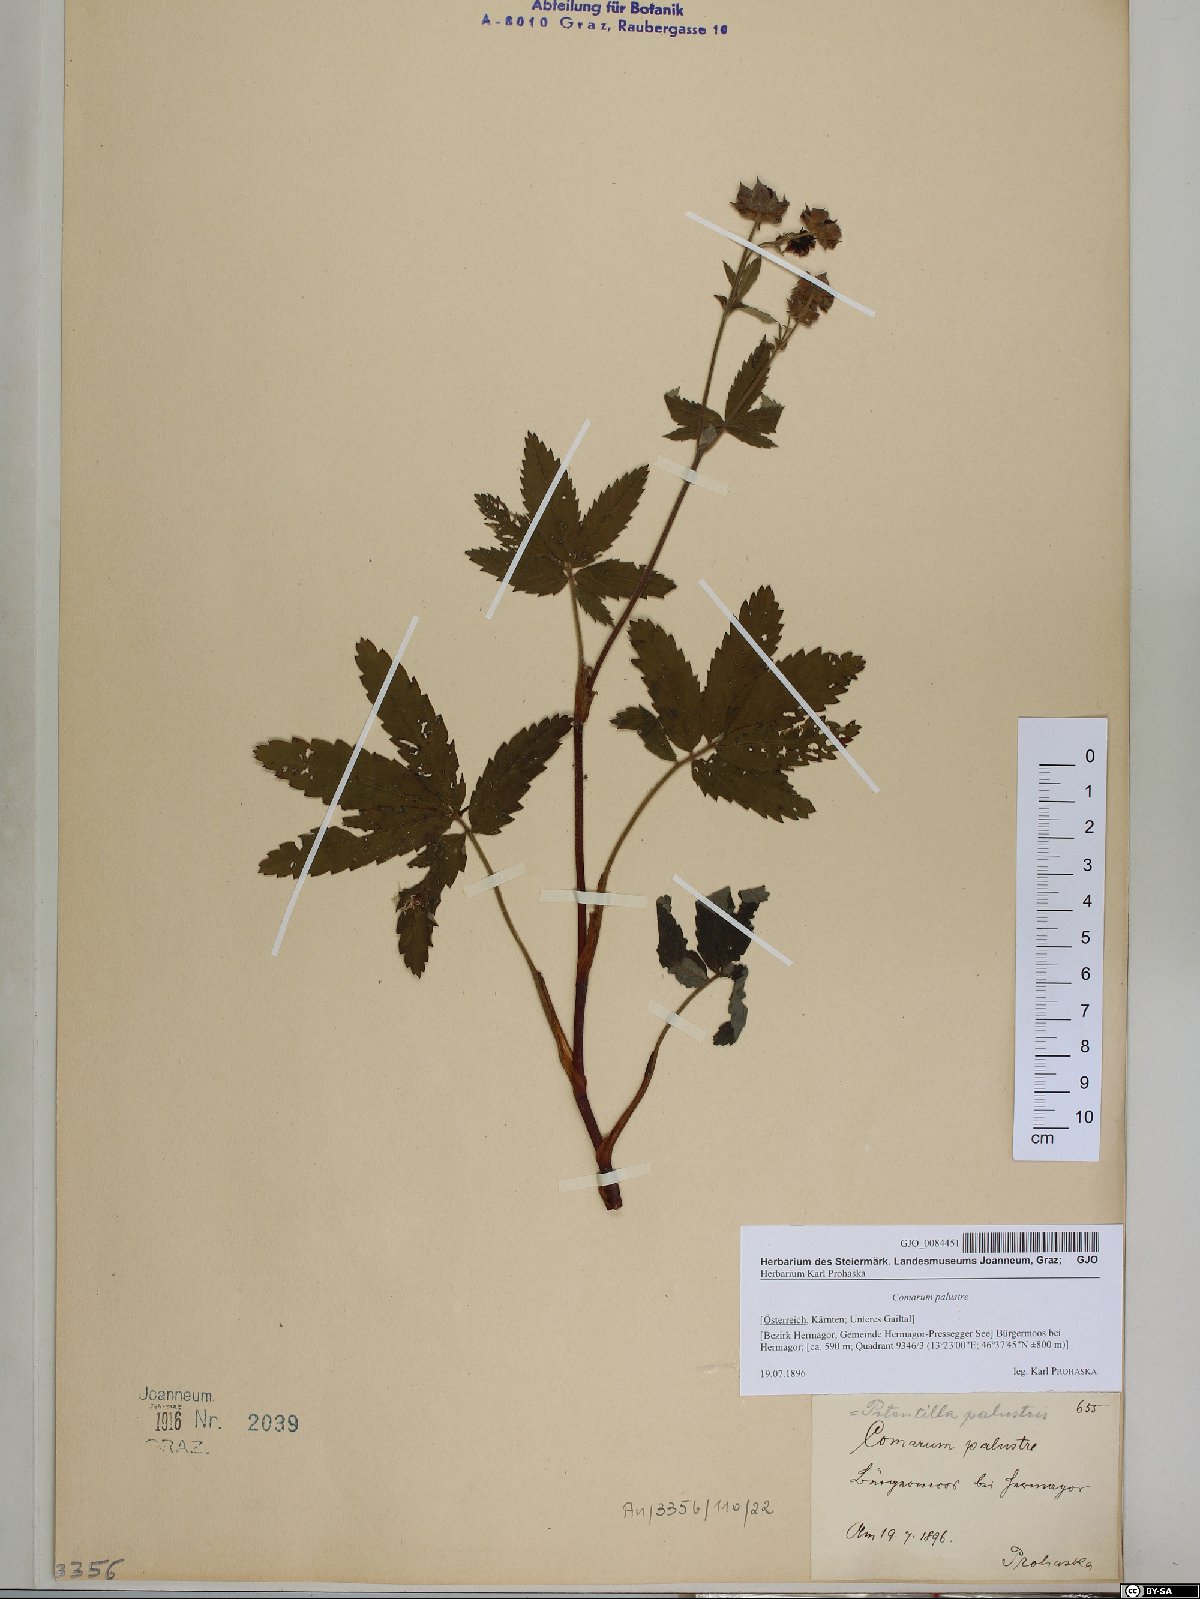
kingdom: Plantae
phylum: Tracheophyta
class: Magnoliopsida
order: Rosales
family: Rosaceae
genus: Comarum
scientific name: Comarum palustre
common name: Marsh cinquefoil
